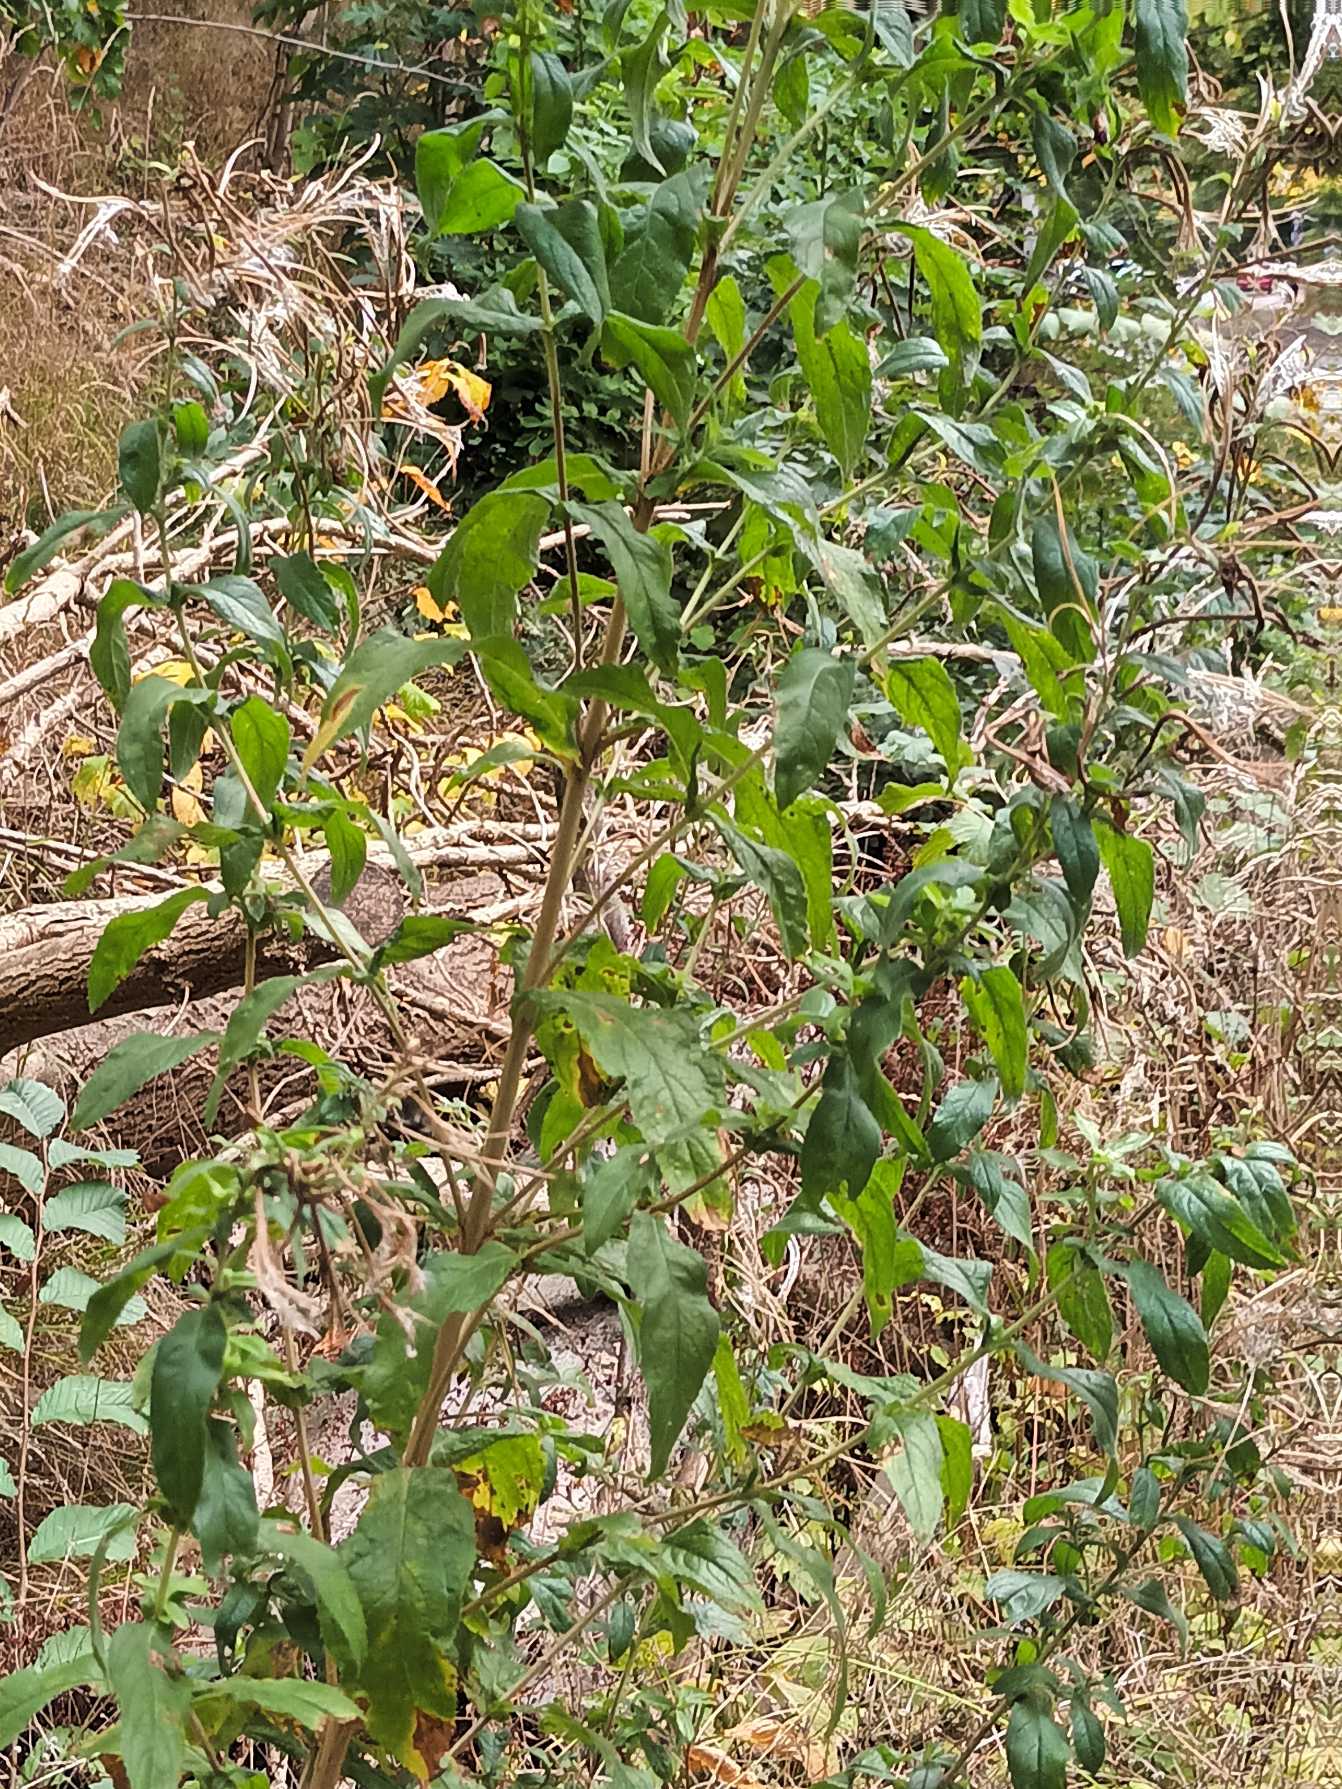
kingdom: Plantae
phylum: Tracheophyta
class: Magnoliopsida
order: Myrtales
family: Onagraceae
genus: Epilobium
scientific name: Epilobium hirsutum
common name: Lådden dueurt
